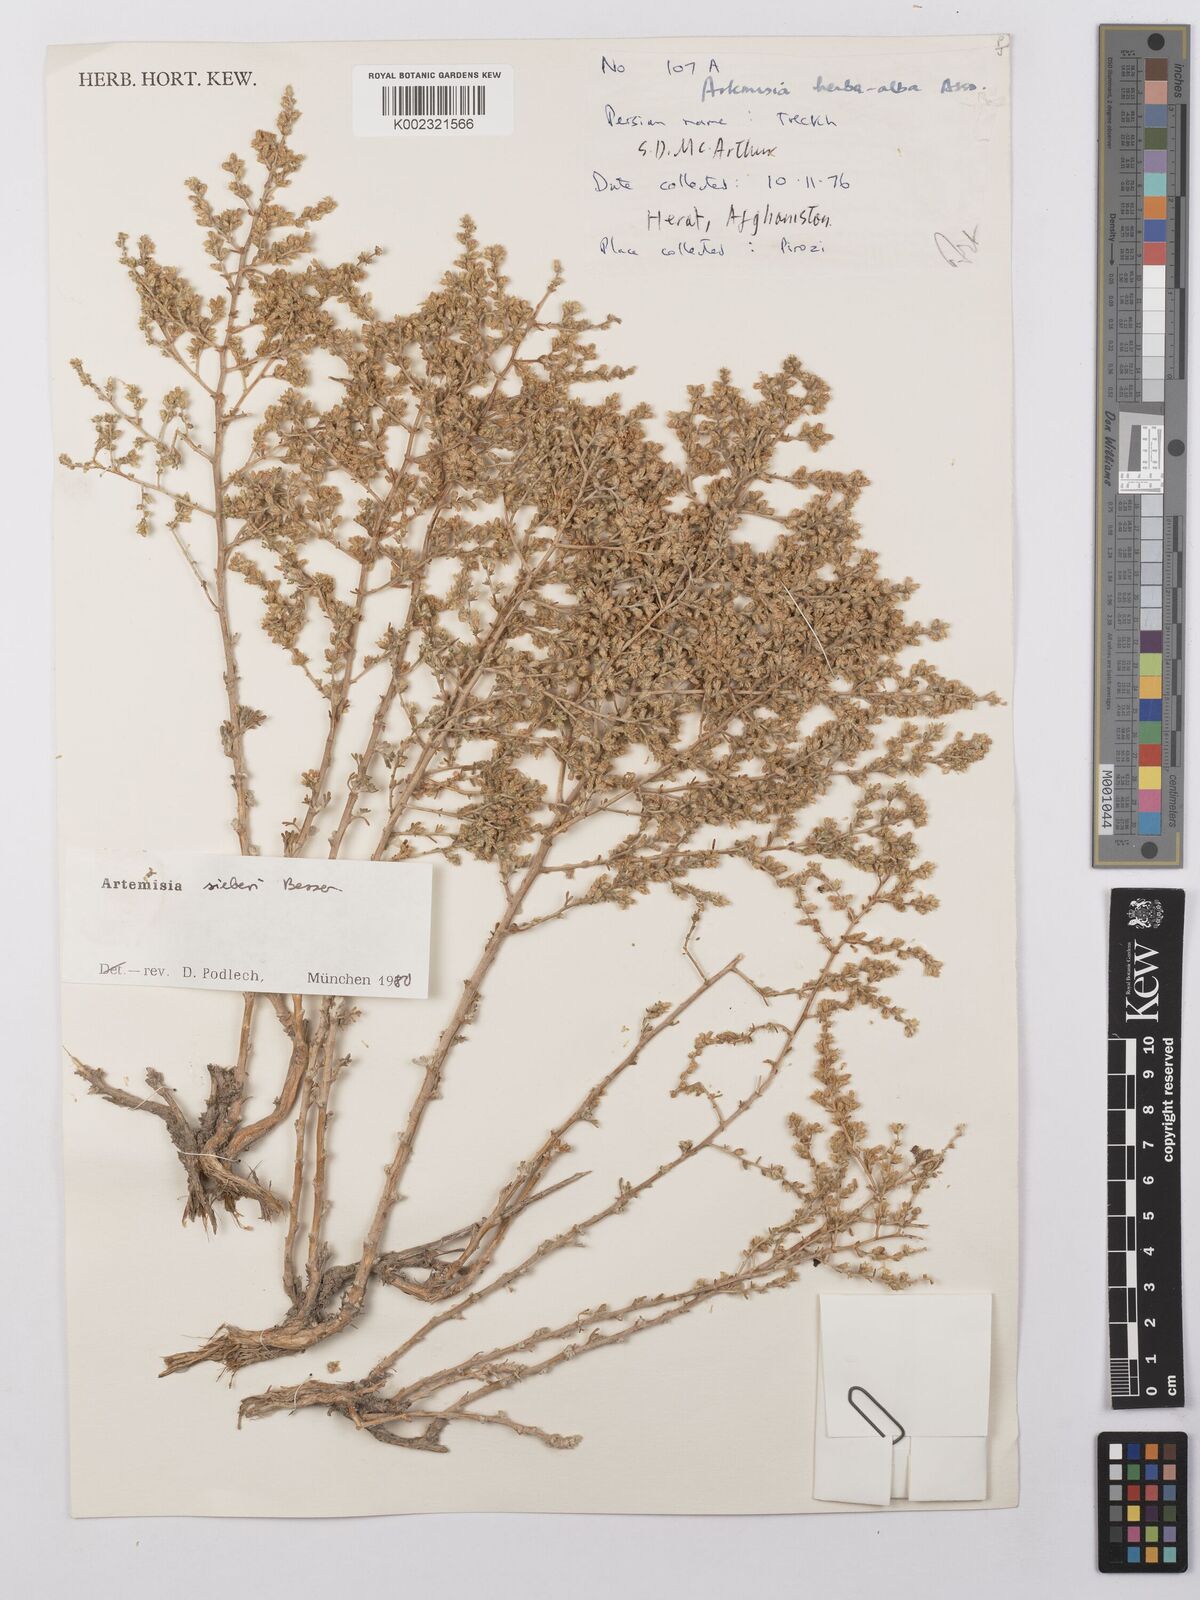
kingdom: Plantae
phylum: Tracheophyta
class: Magnoliopsida
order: Asterales
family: Asteraceae
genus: Artemisia
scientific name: Artemisia sieberi
